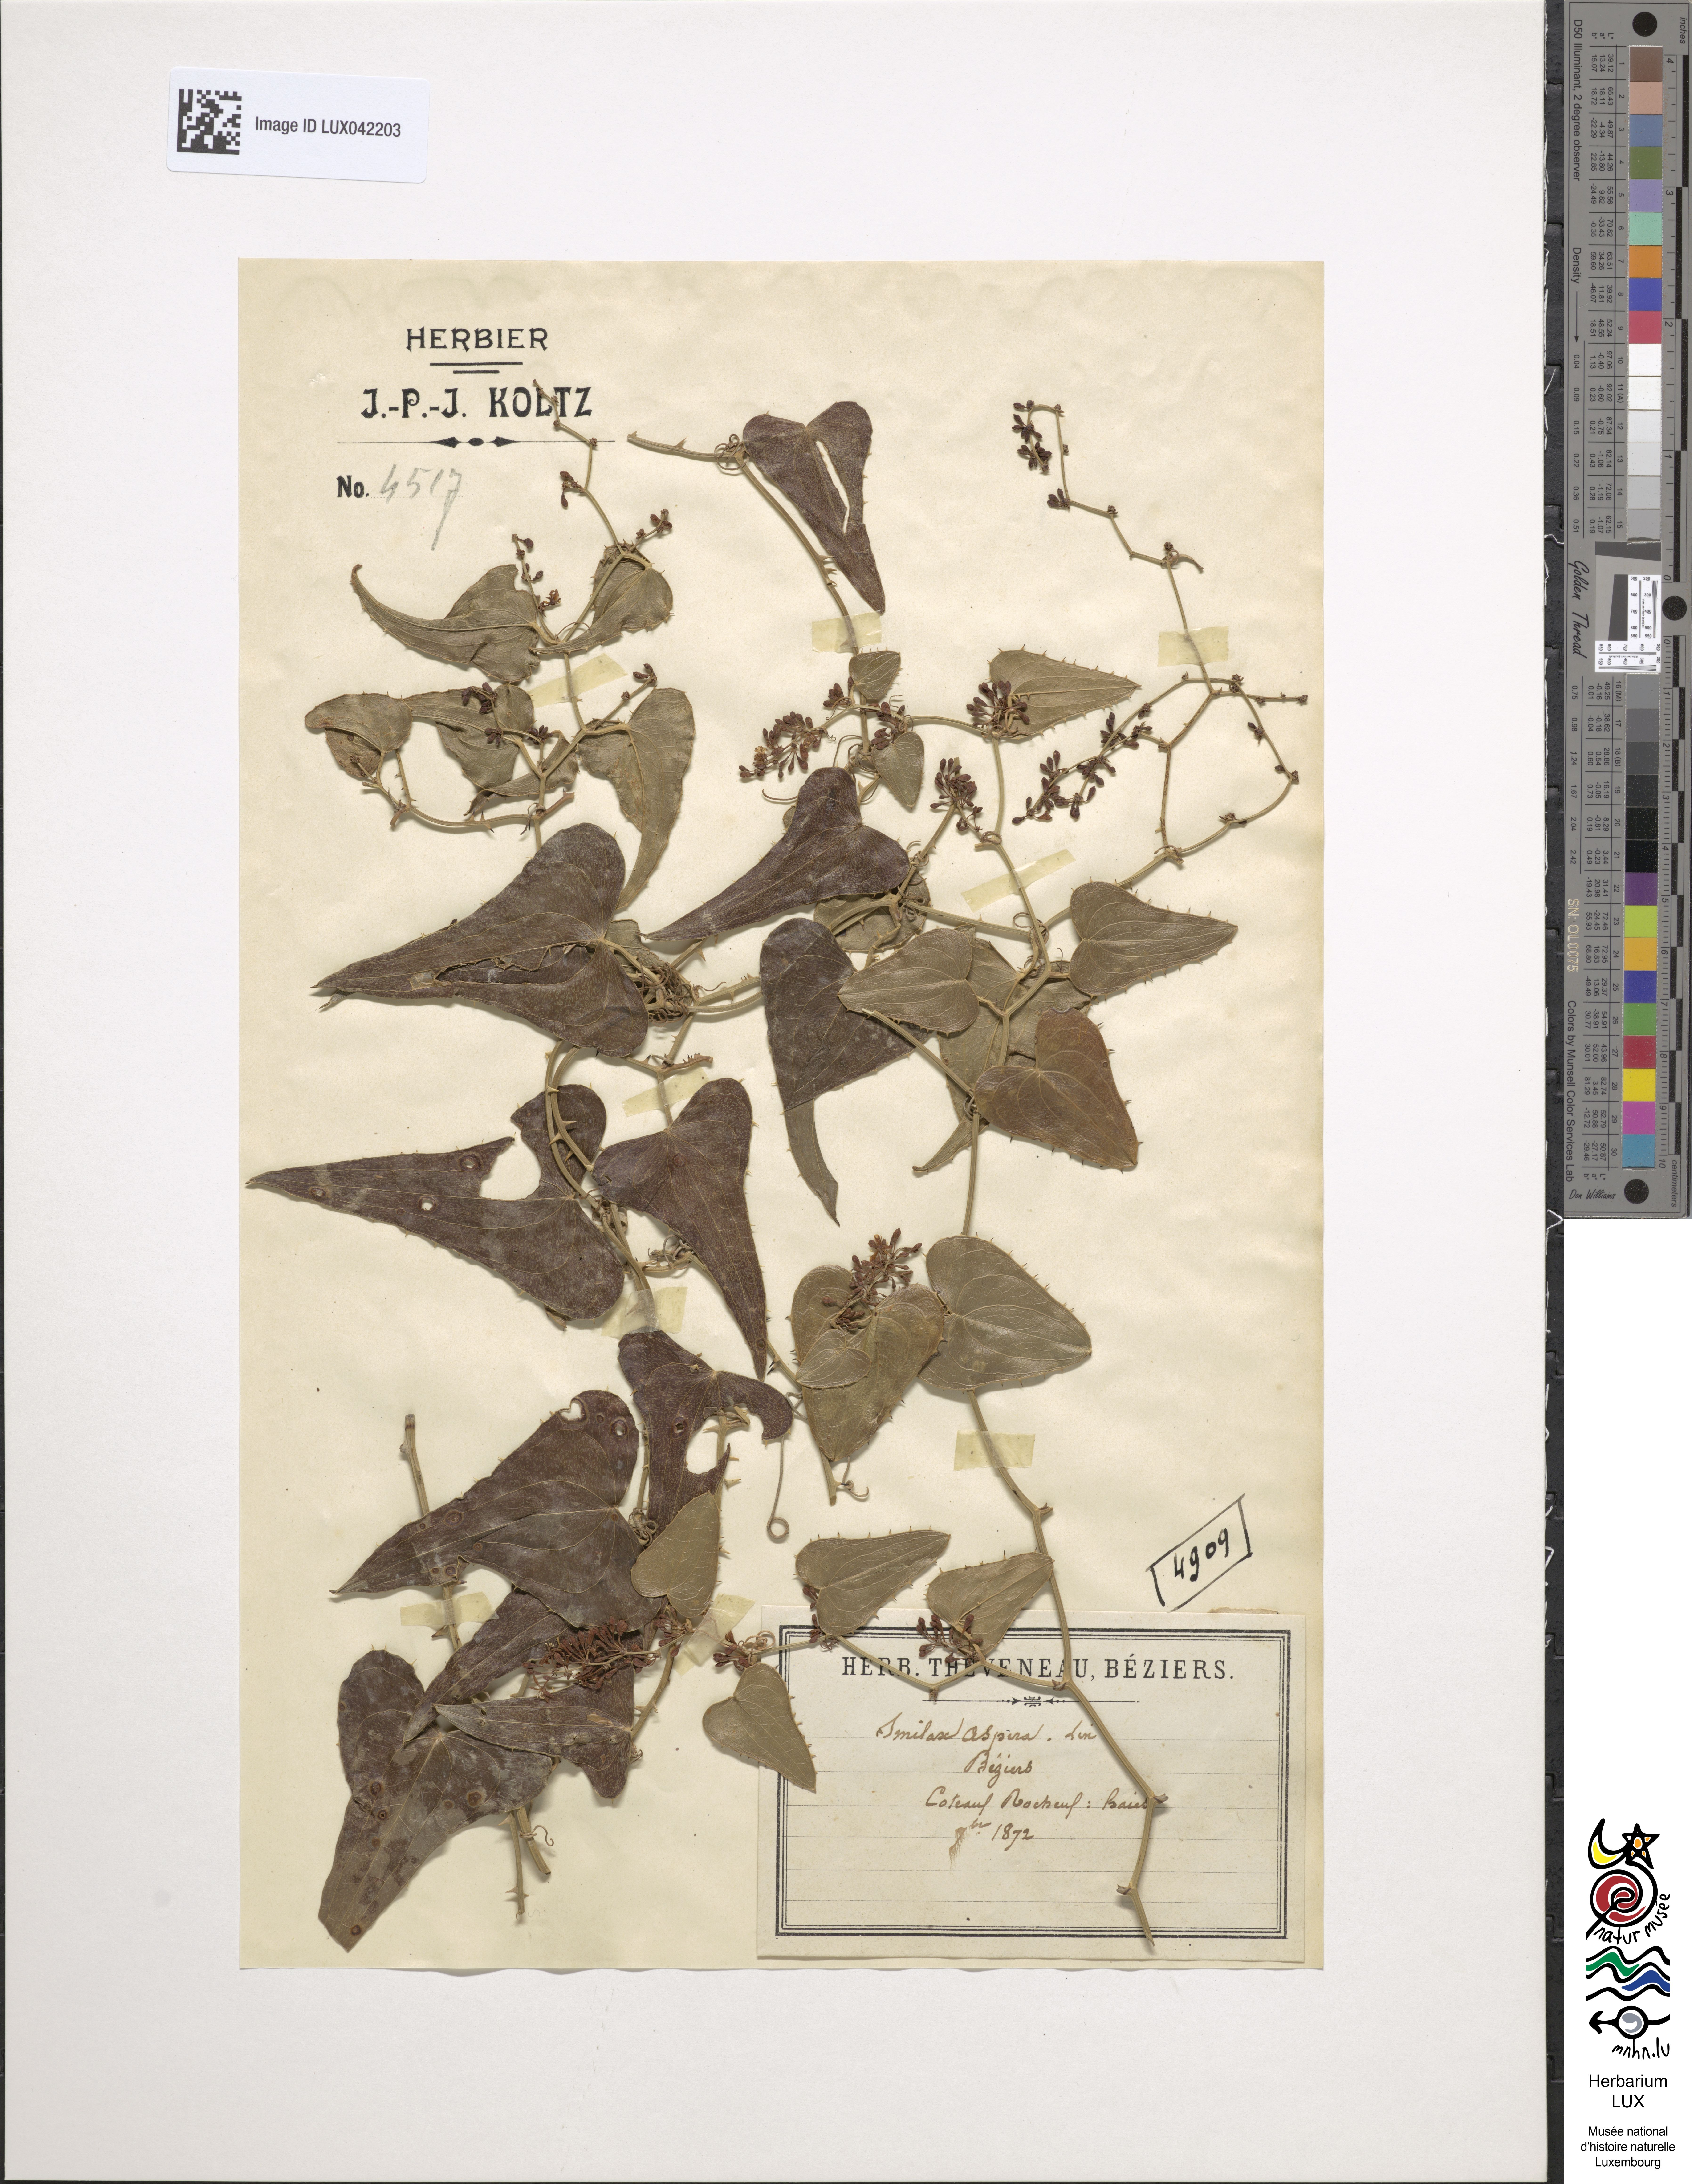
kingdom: Plantae
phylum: Tracheophyta
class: Liliopsida
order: Liliales
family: Smilacaceae
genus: Smilax
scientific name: Smilax aspera
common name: Common smilax
